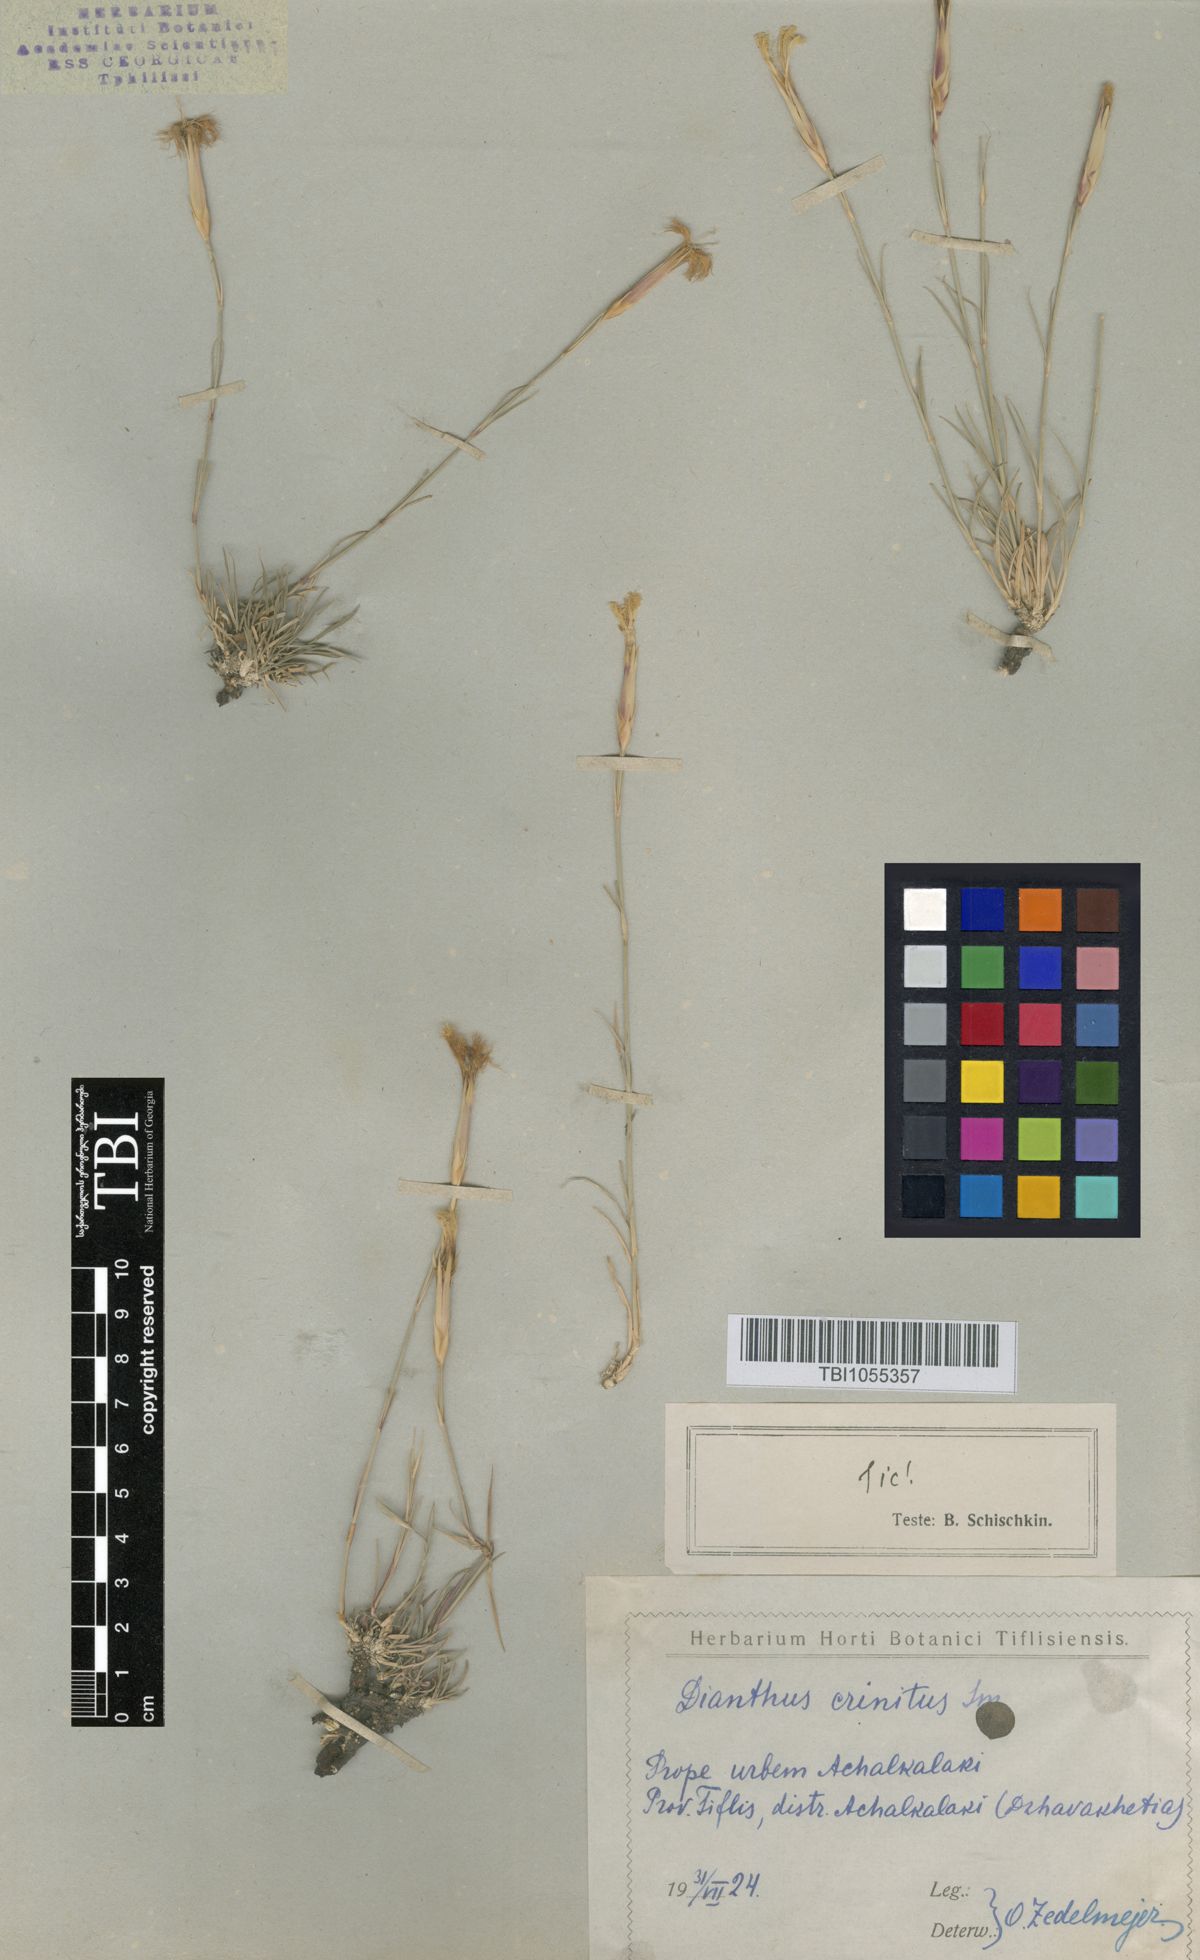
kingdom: Plantae
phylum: Tracheophyta
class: Magnoliopsida
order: Caryophyllales
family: Caryophyllaceae
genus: Dianthus
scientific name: Dianthus crinitus
